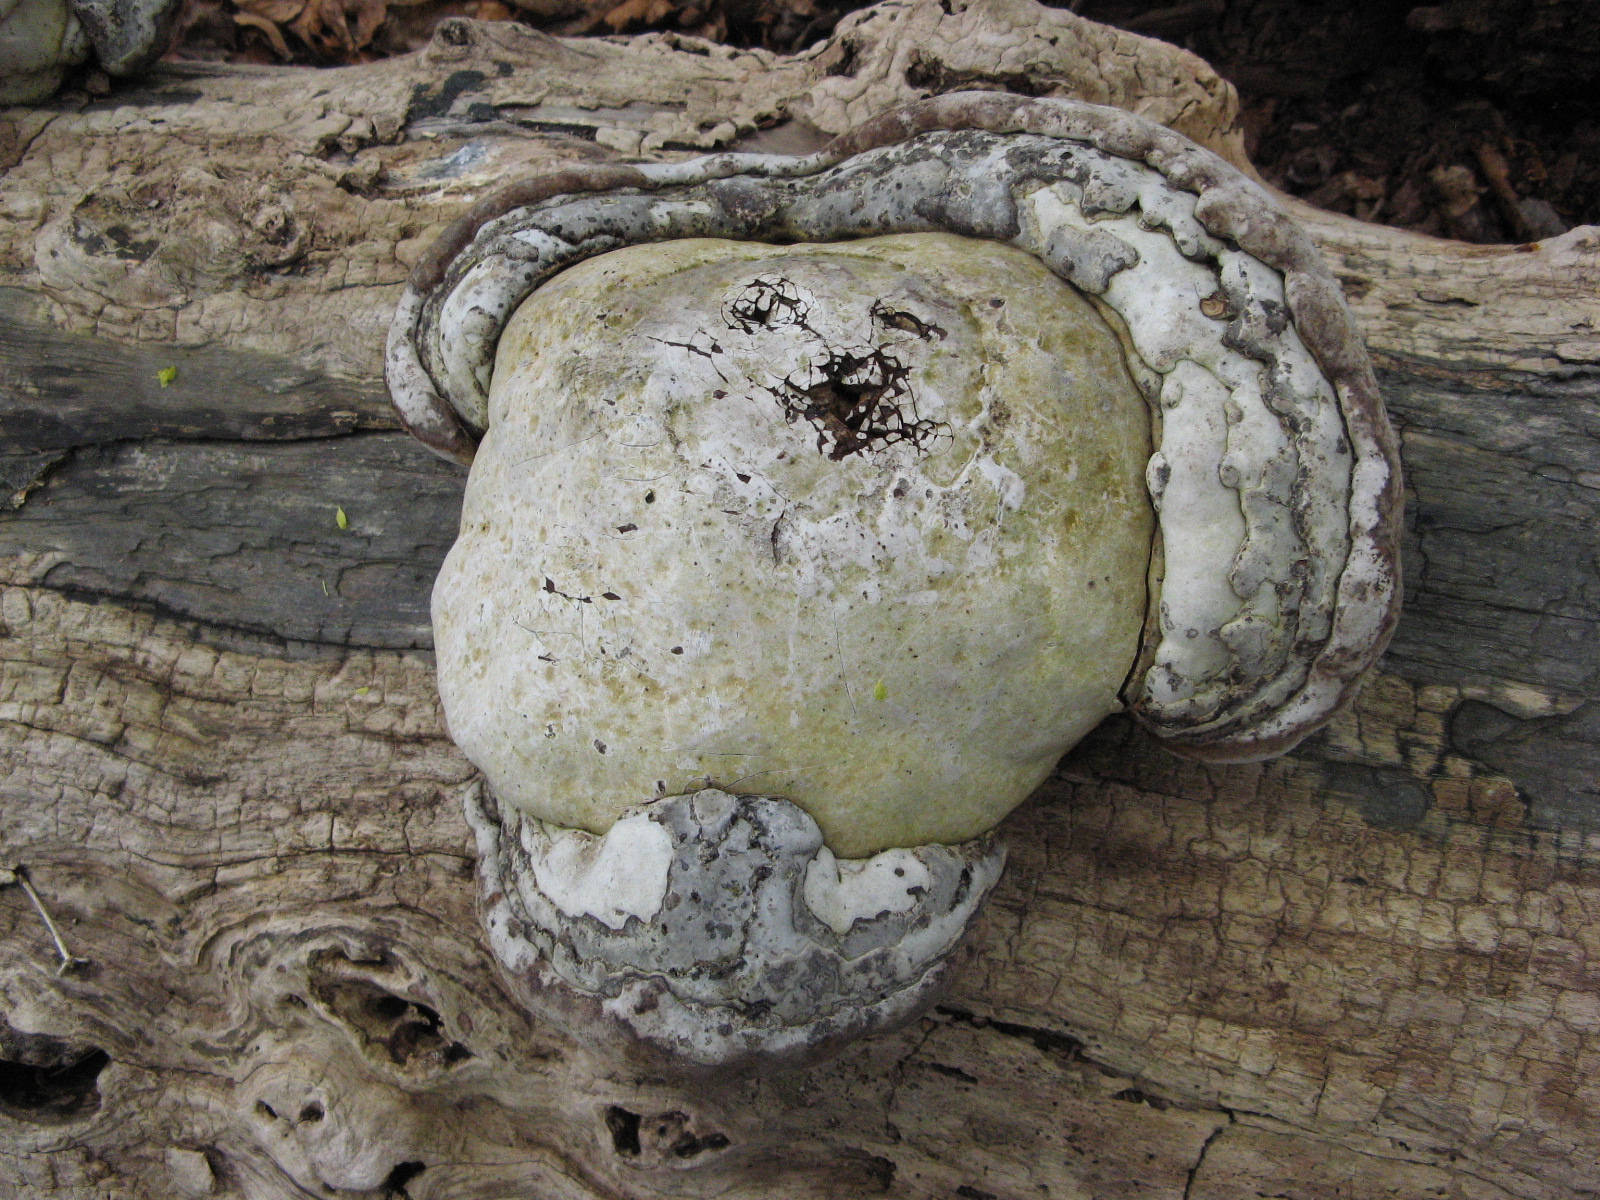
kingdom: Fungi
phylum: Basidiomycota
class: Agaricomycetes
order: Polyporales
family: Polyporaceae
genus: Fomes
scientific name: Fomes fomentarius
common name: tøndersvamp
